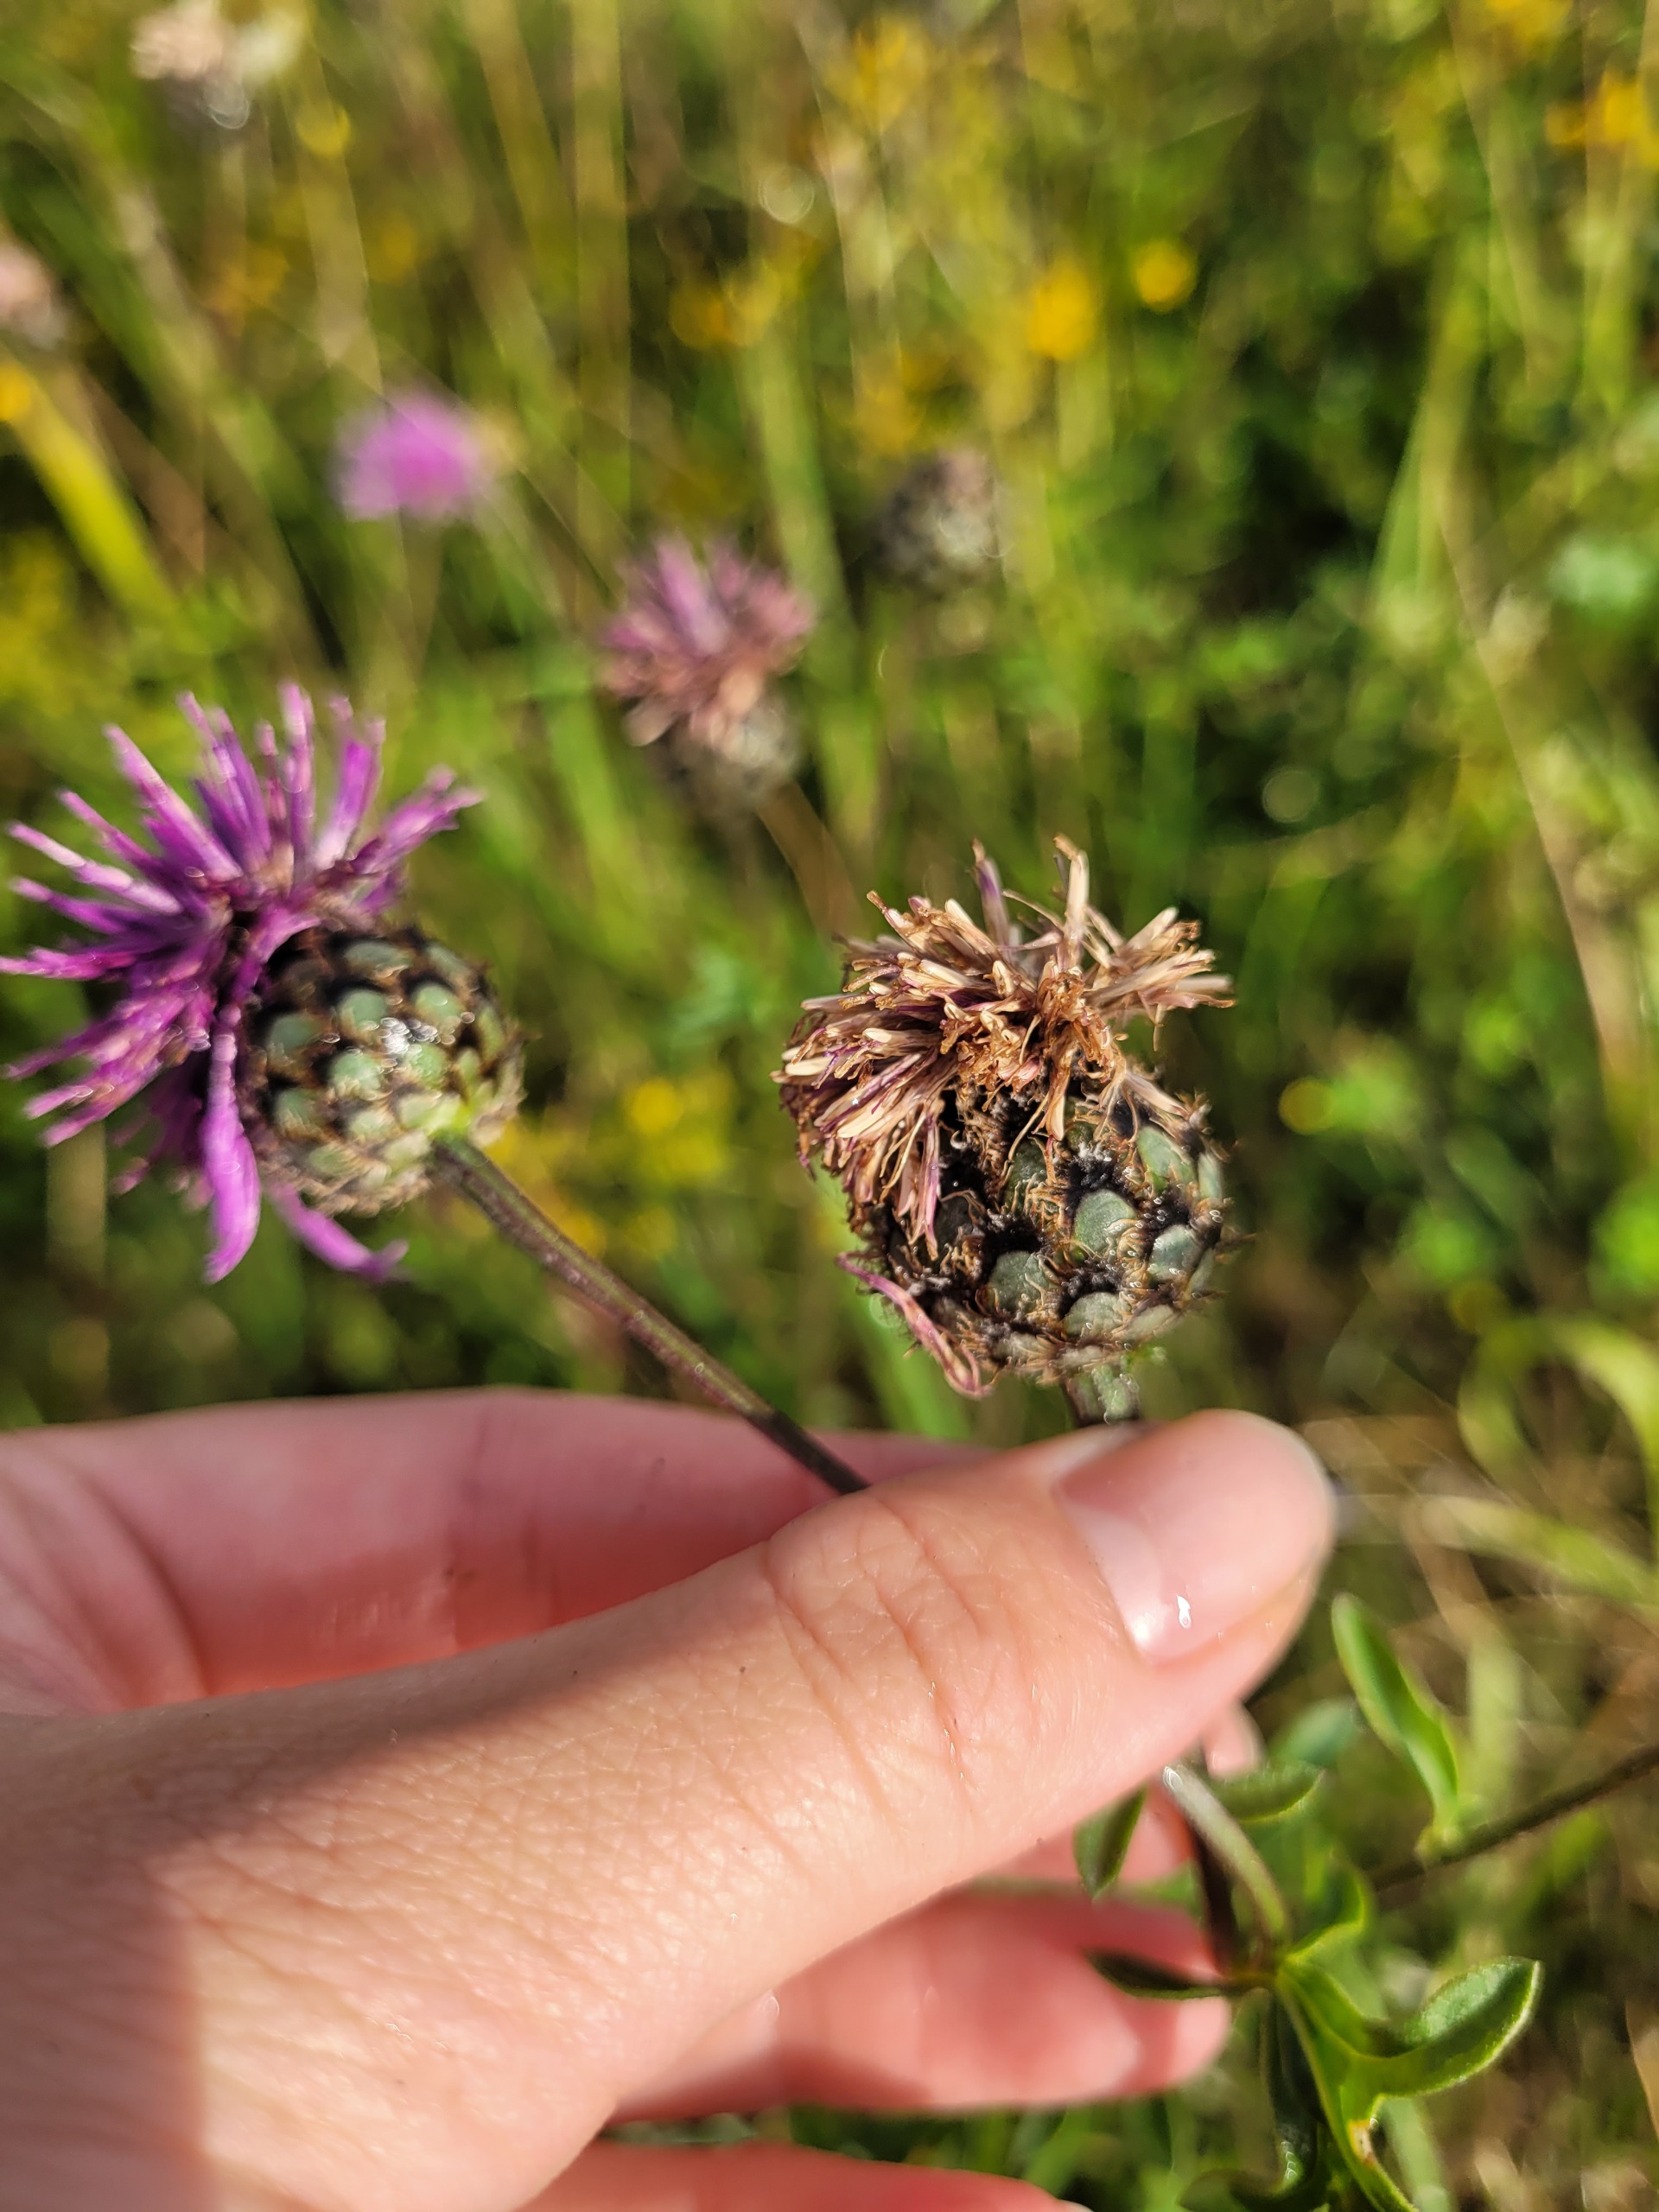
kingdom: Plantae
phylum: Tracheophyta
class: Magnoliopsida
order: Asterales
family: Asteraceae
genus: Centaurea
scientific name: Centaurea scabiosa
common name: Stor knopurt
